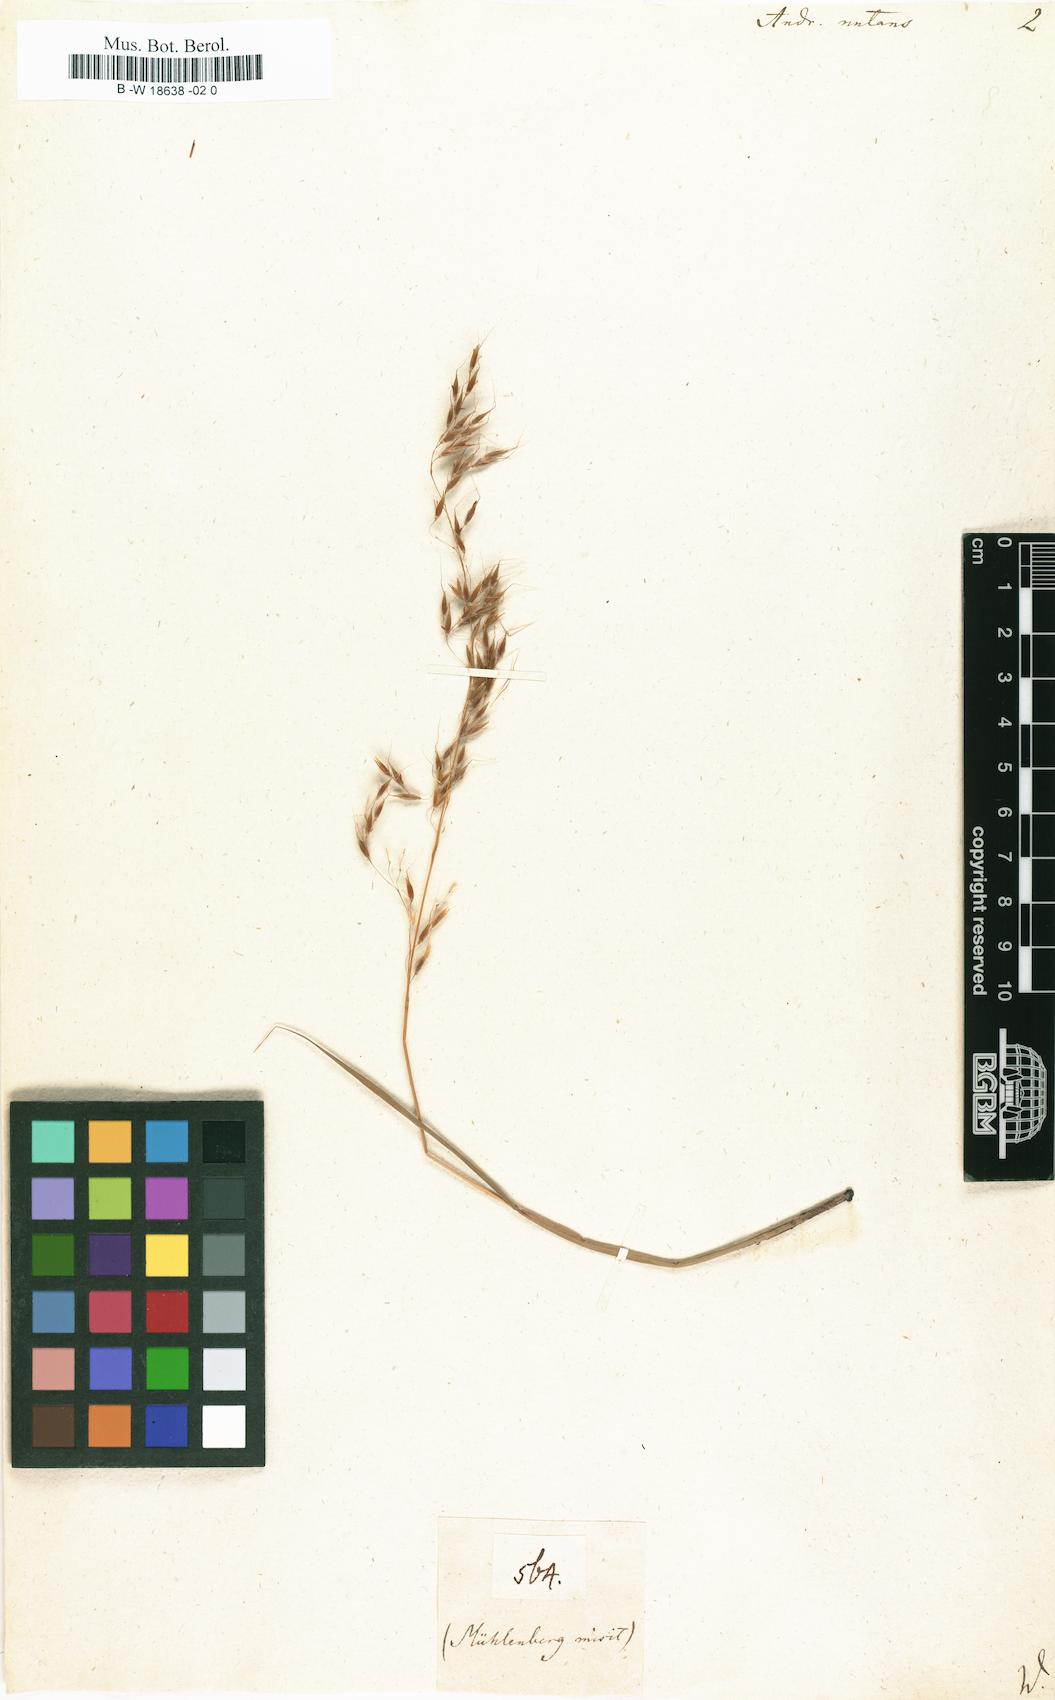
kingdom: Plantae
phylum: Tracheophyta
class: Liliopsida
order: Poales
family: Poaceae
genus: Sorghastrum
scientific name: Sorghastrum nutans
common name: Indian grass
